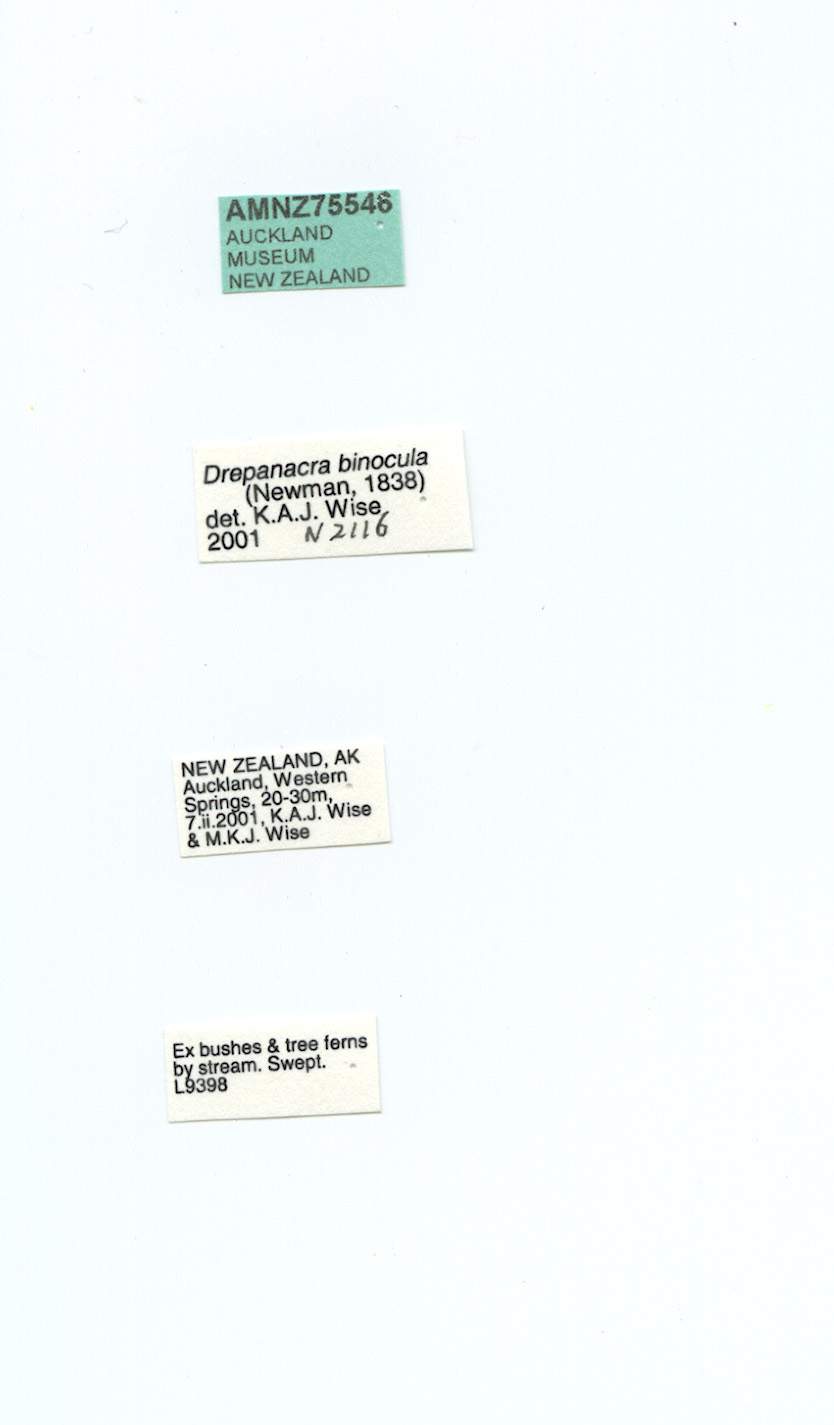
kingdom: Animalia
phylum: Arthropoda
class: Insecta
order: Neuroptera
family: Hemerobiidae
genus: Drepanacra
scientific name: Drepanacra binocula
